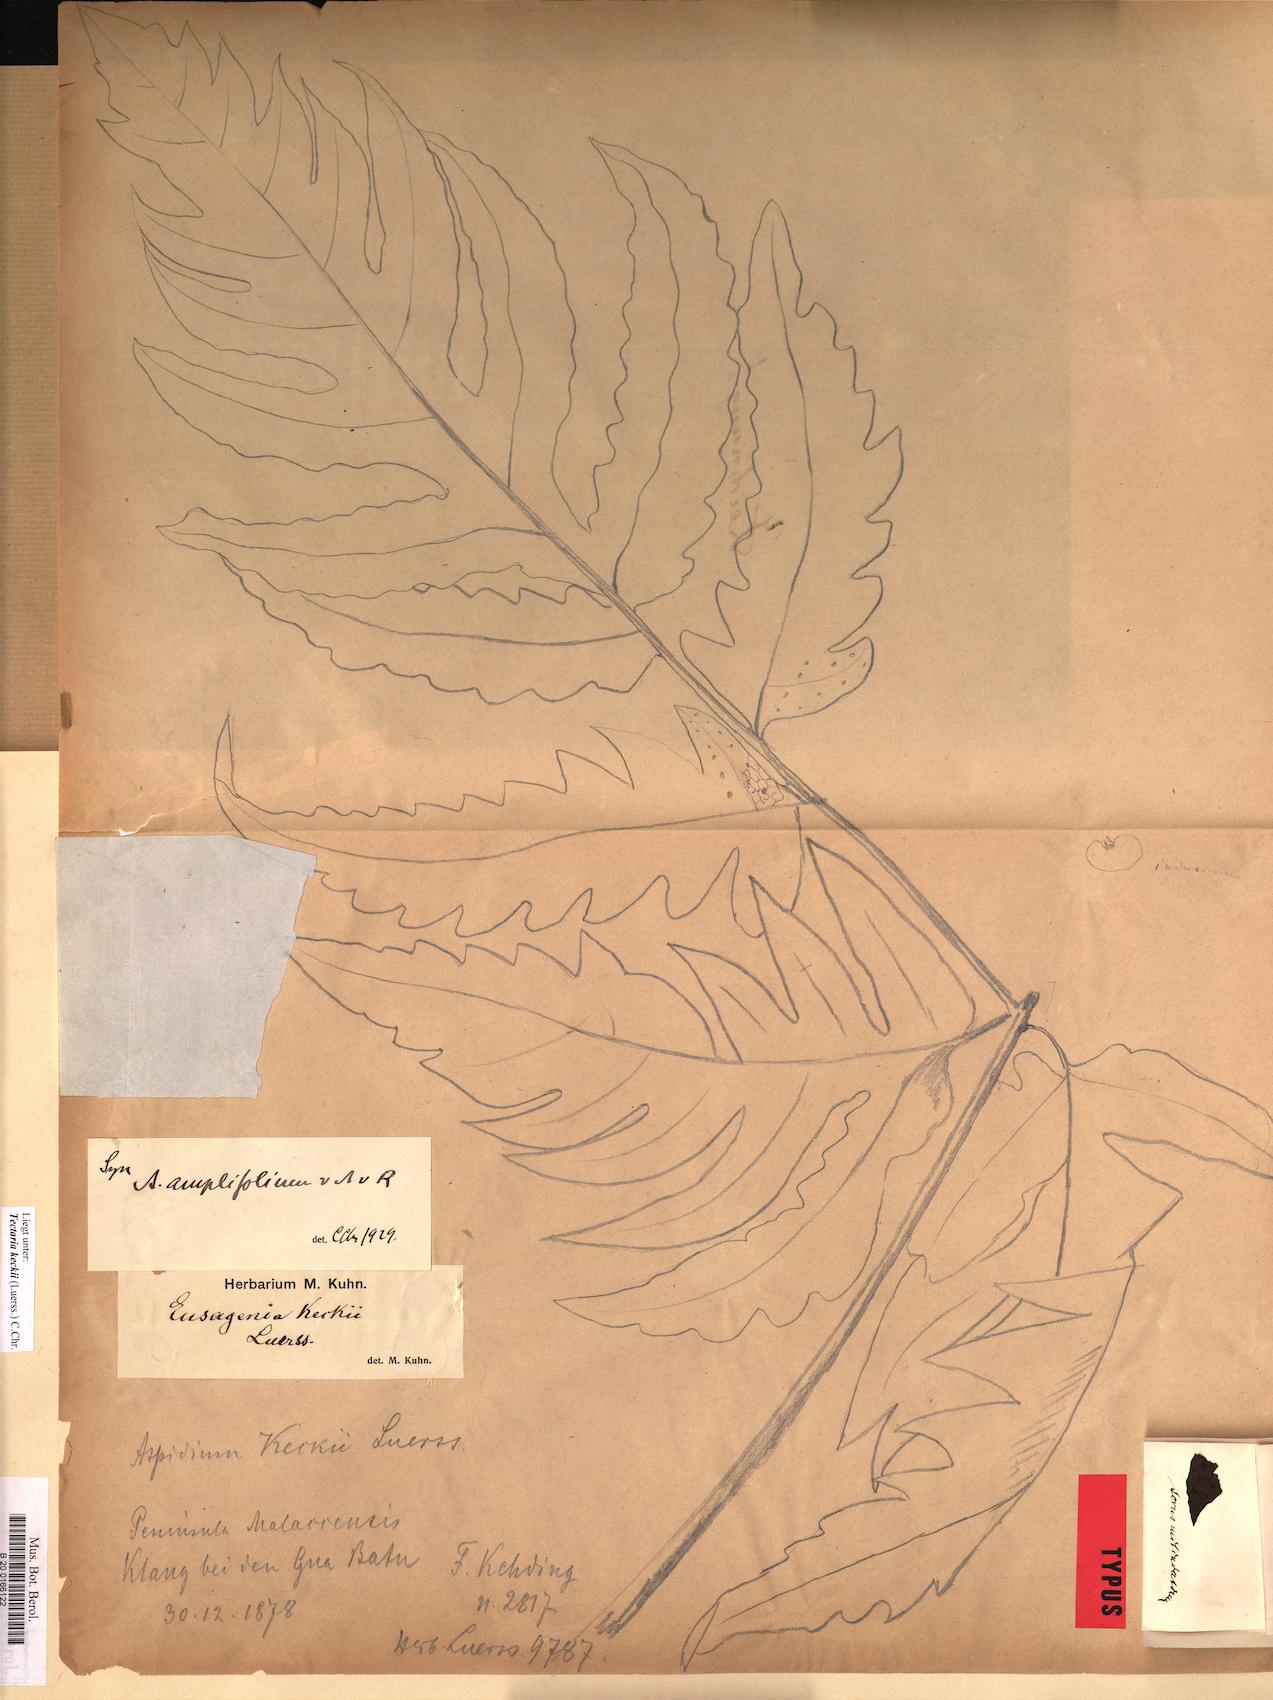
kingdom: Plantae
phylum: Tracheophyta
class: Polypodiopsida
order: Polypodiales
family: Tectariaceae
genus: Tectaria
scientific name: Tectaria keckii
